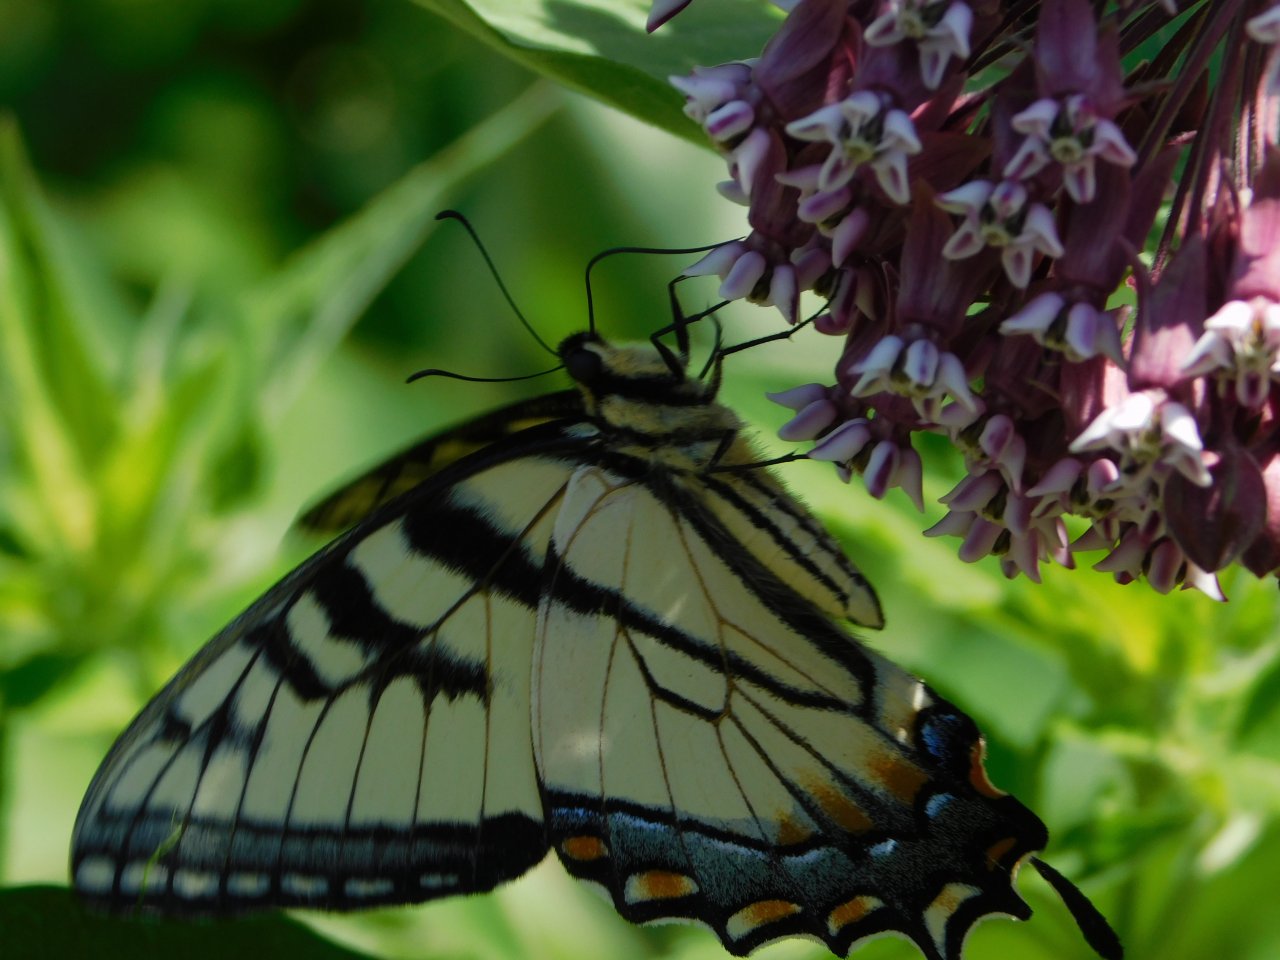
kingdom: Animalia
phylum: Arthropoda
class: Insecta
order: Lepidoptera
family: Papilionidae
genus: Pterourus
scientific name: Pterourus glaucus
